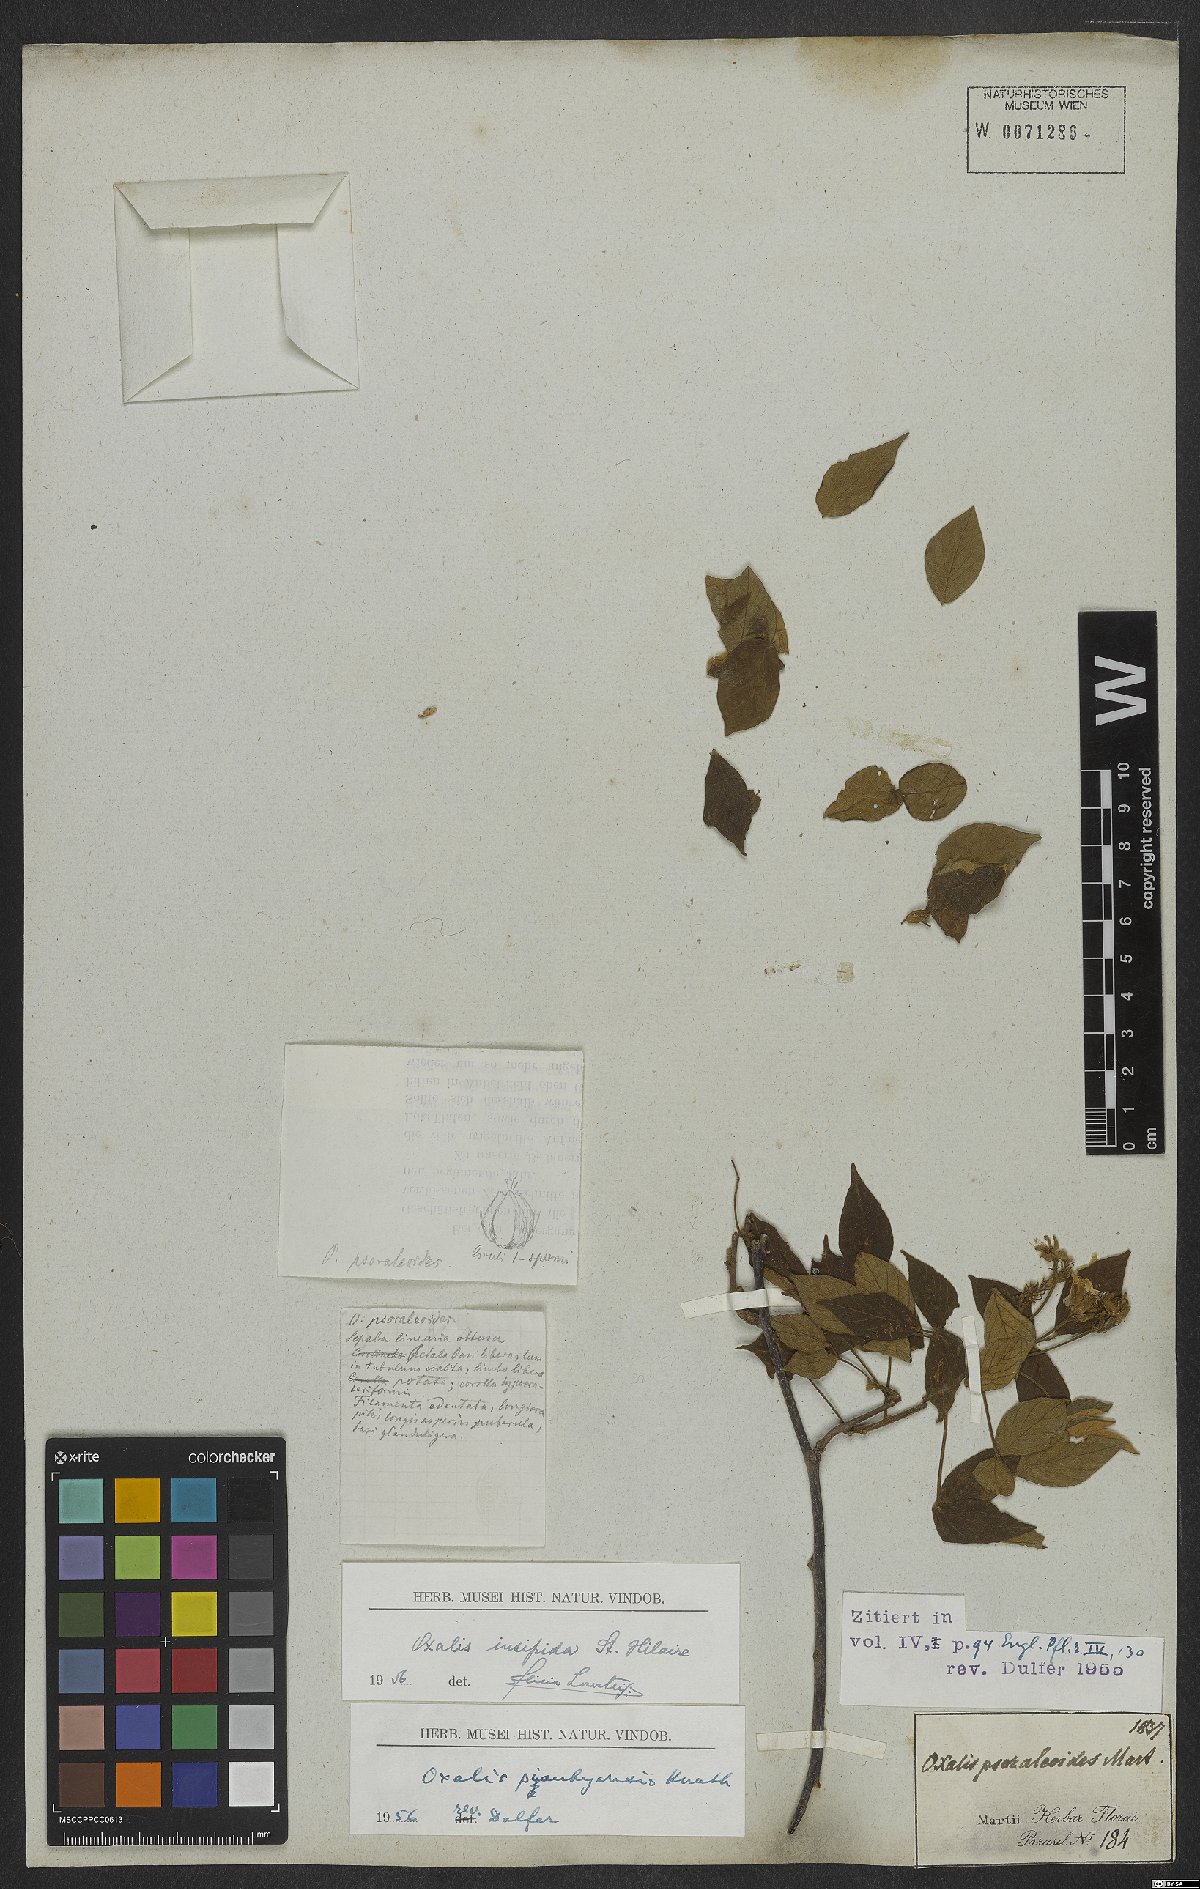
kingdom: Plantae
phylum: Tracheophyta
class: Magnoliopsida
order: Oxalidales
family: Oxalidaceae
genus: Oxalis
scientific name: Oxalis psoraleoides
